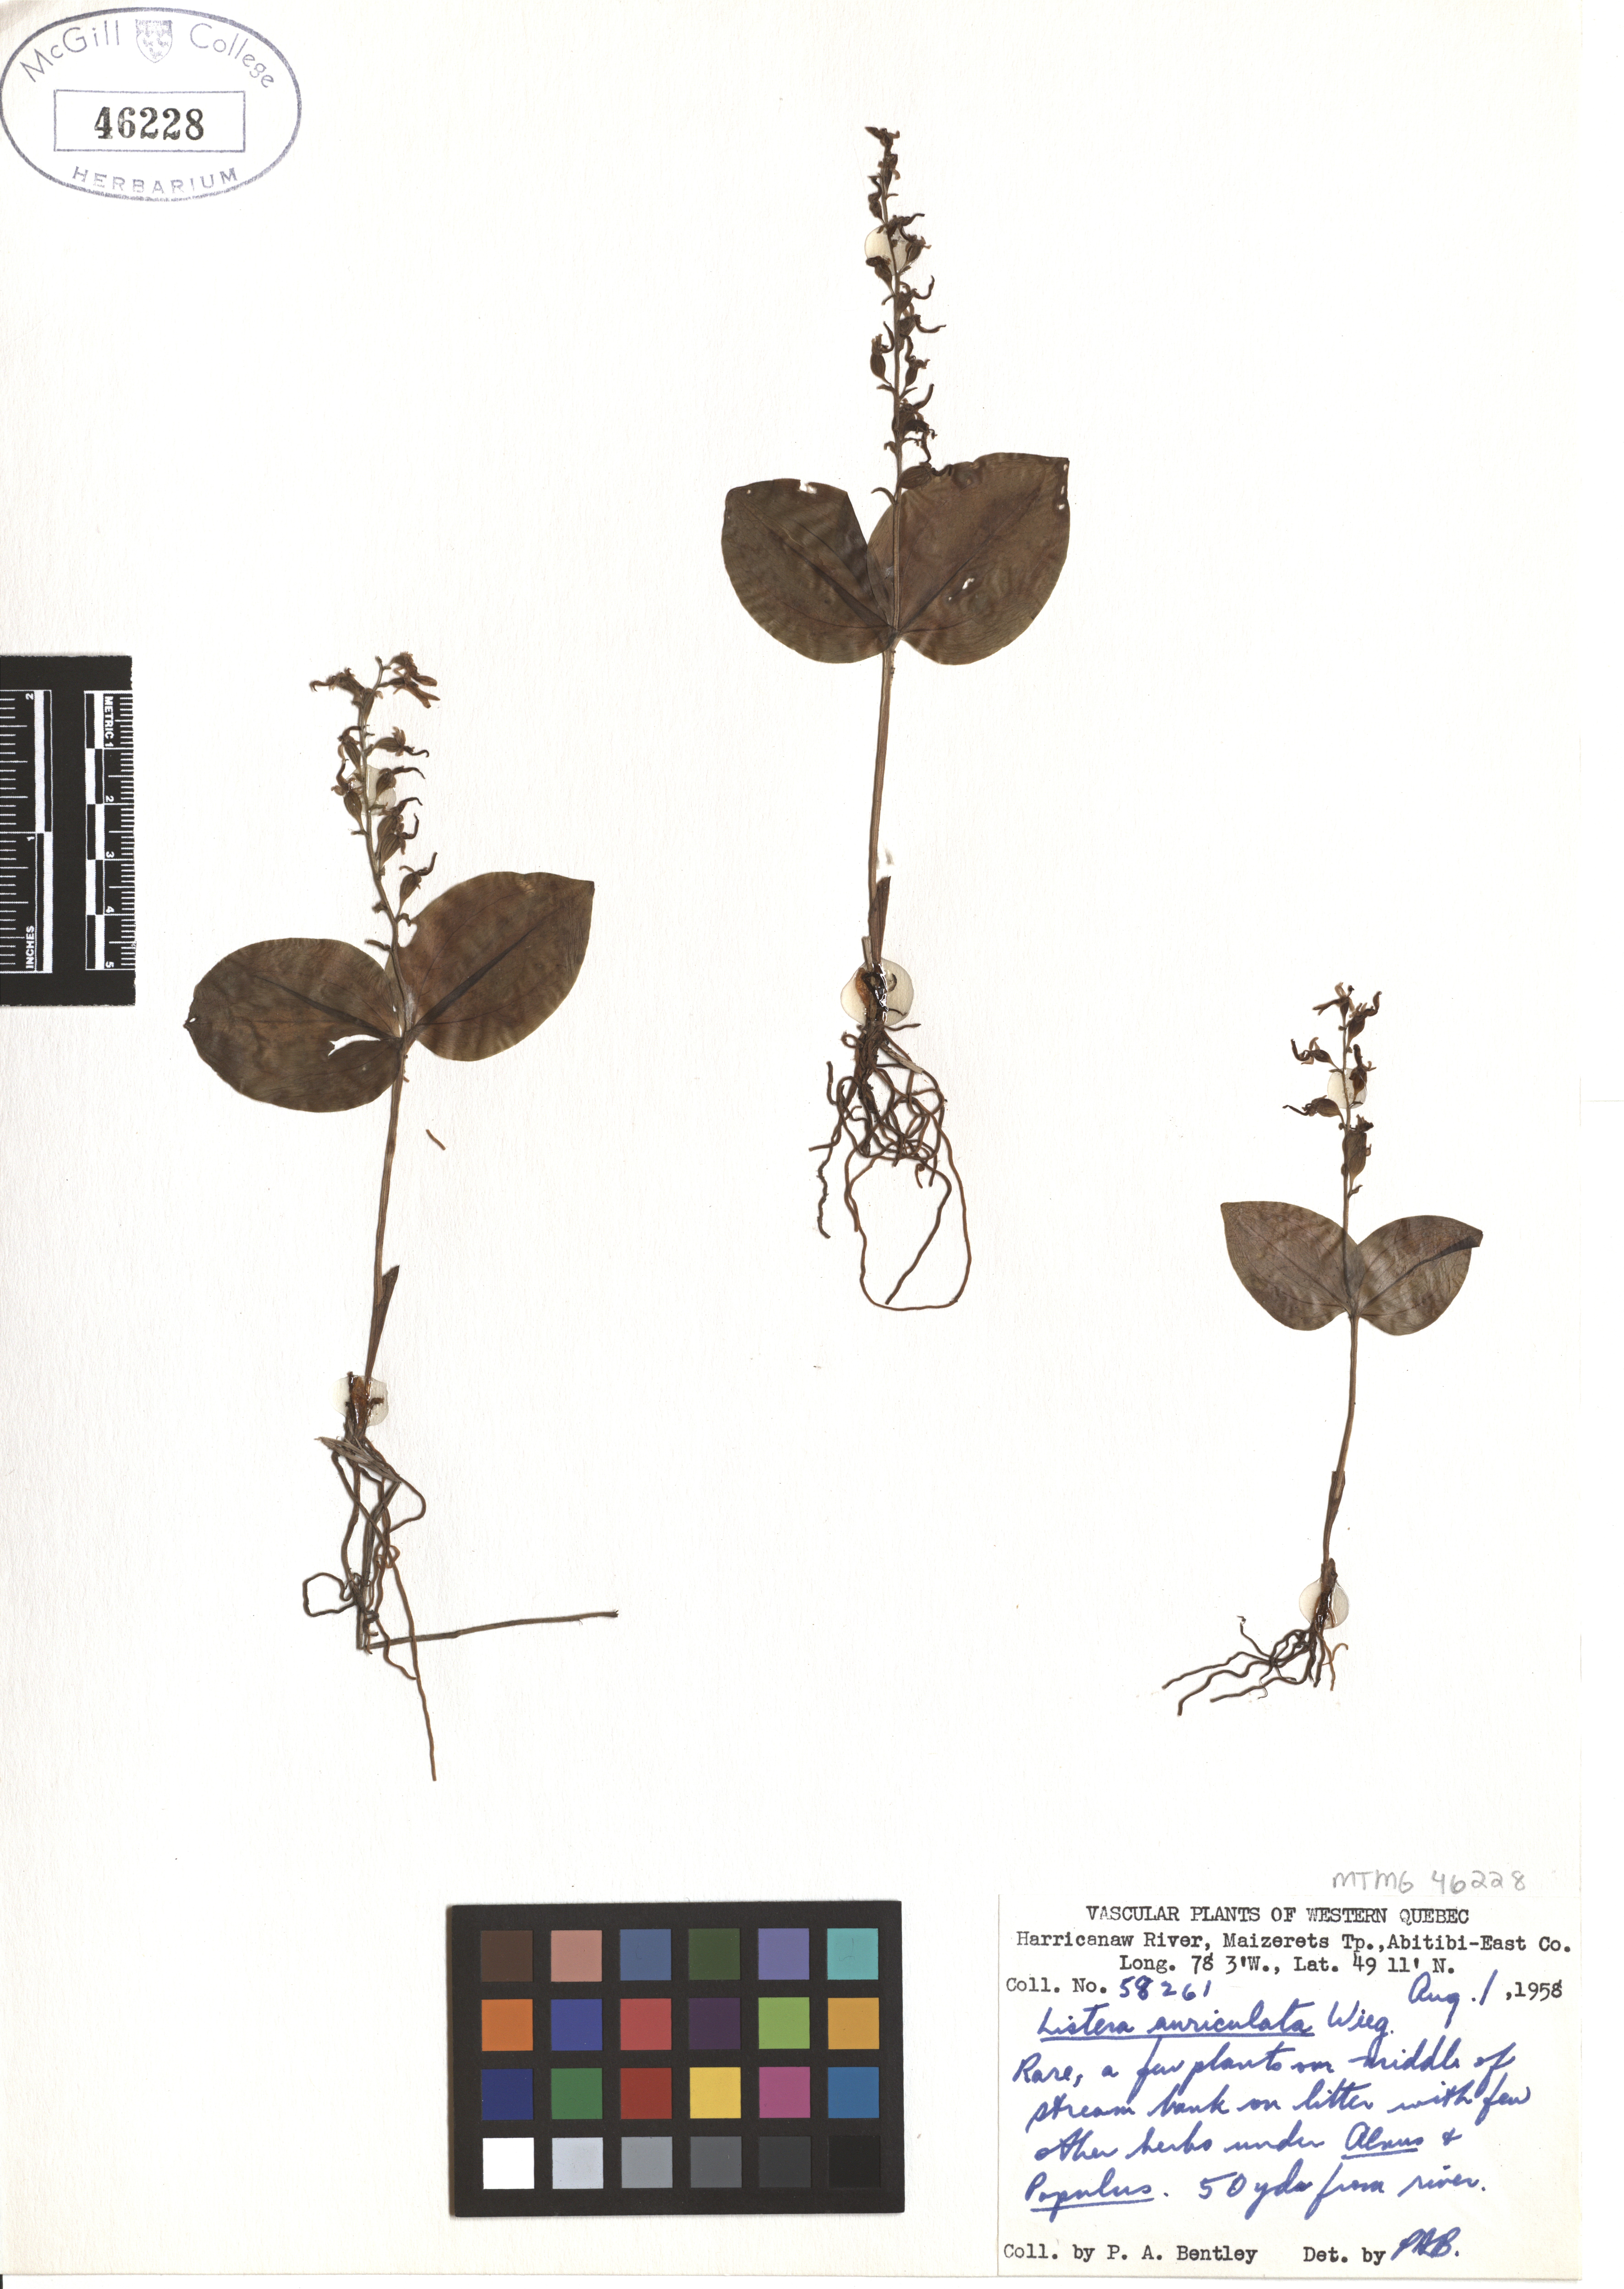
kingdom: Plantae
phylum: Tracheophyta
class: Liliopsida
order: Asparagales
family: Orchidaceae
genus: Neottia
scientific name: Neottia auriculata
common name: Auricled twayblade
